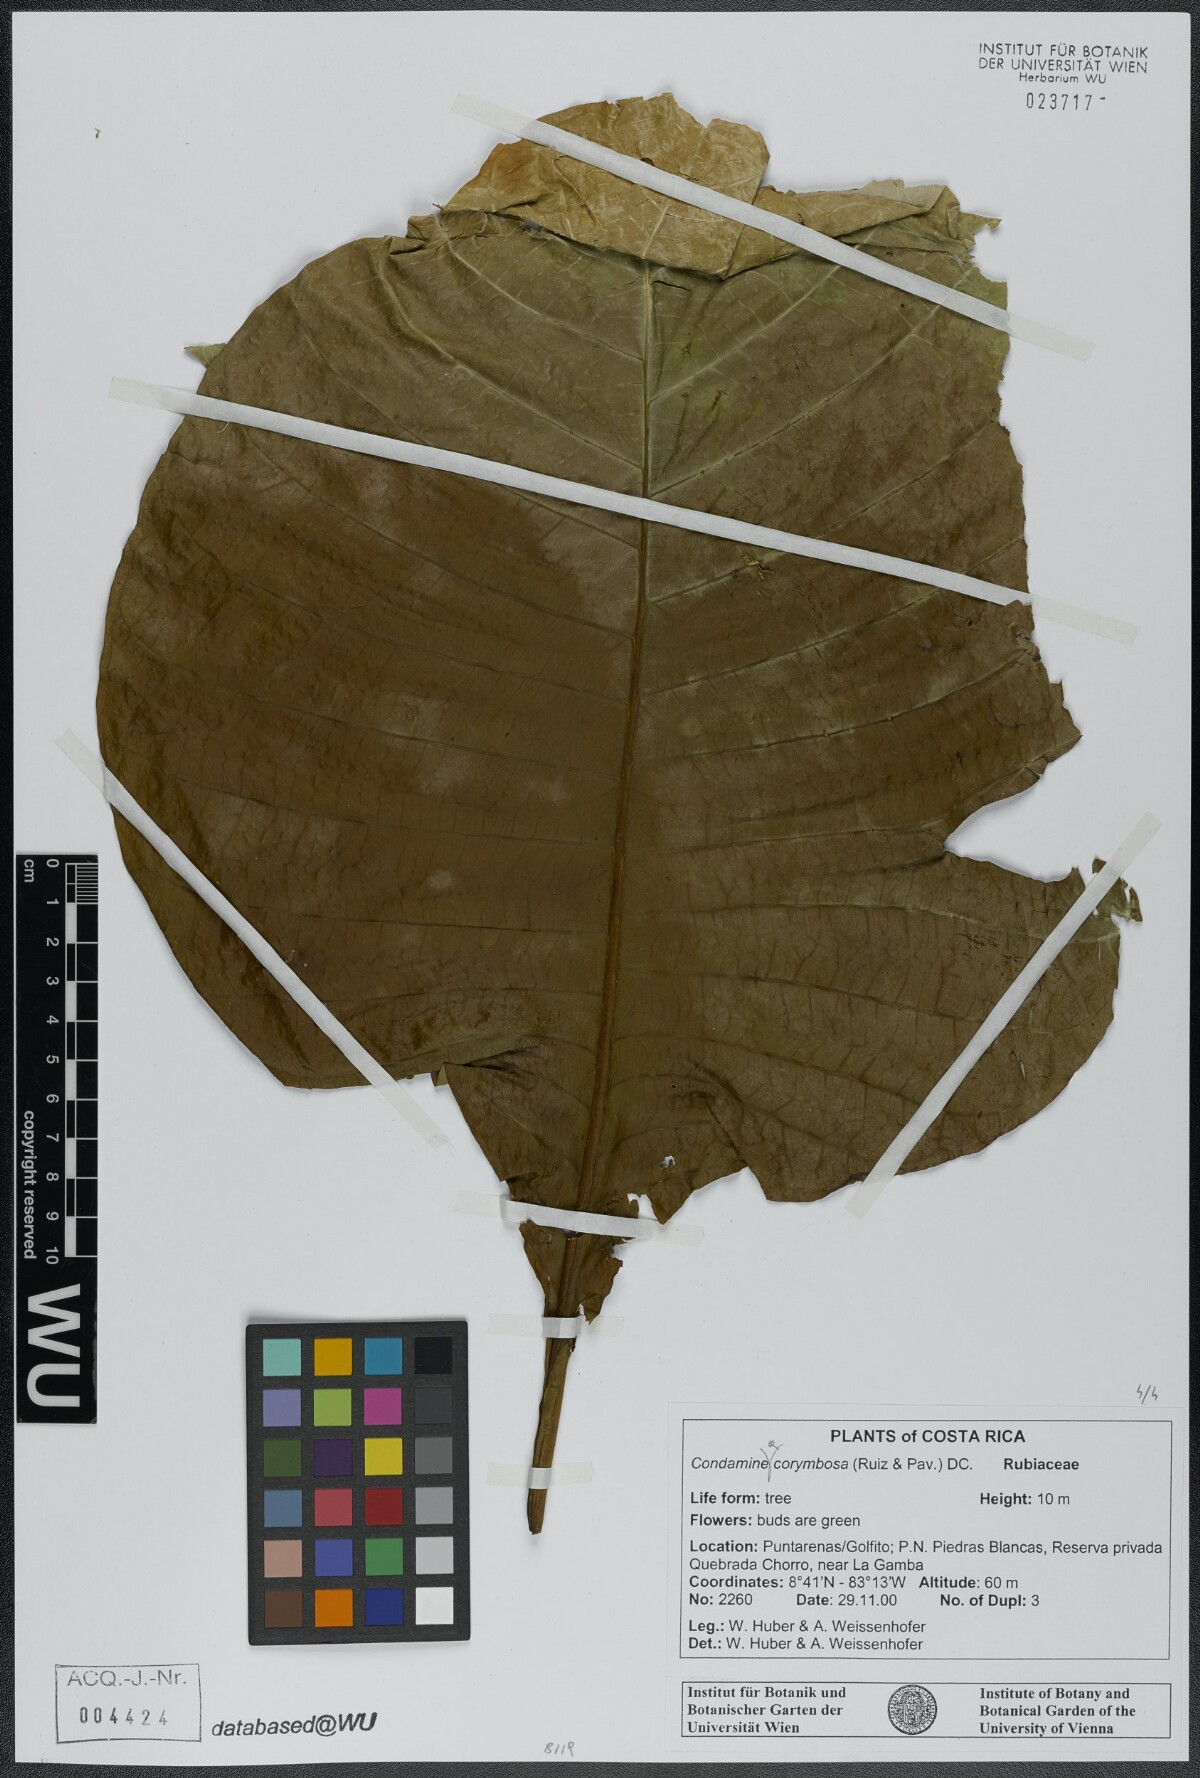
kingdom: Plantae
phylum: Tracheophyta
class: Magnoliopsida
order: Gentianales
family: Rubiaceae
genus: Condaminea
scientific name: Condaminea corymbosa
